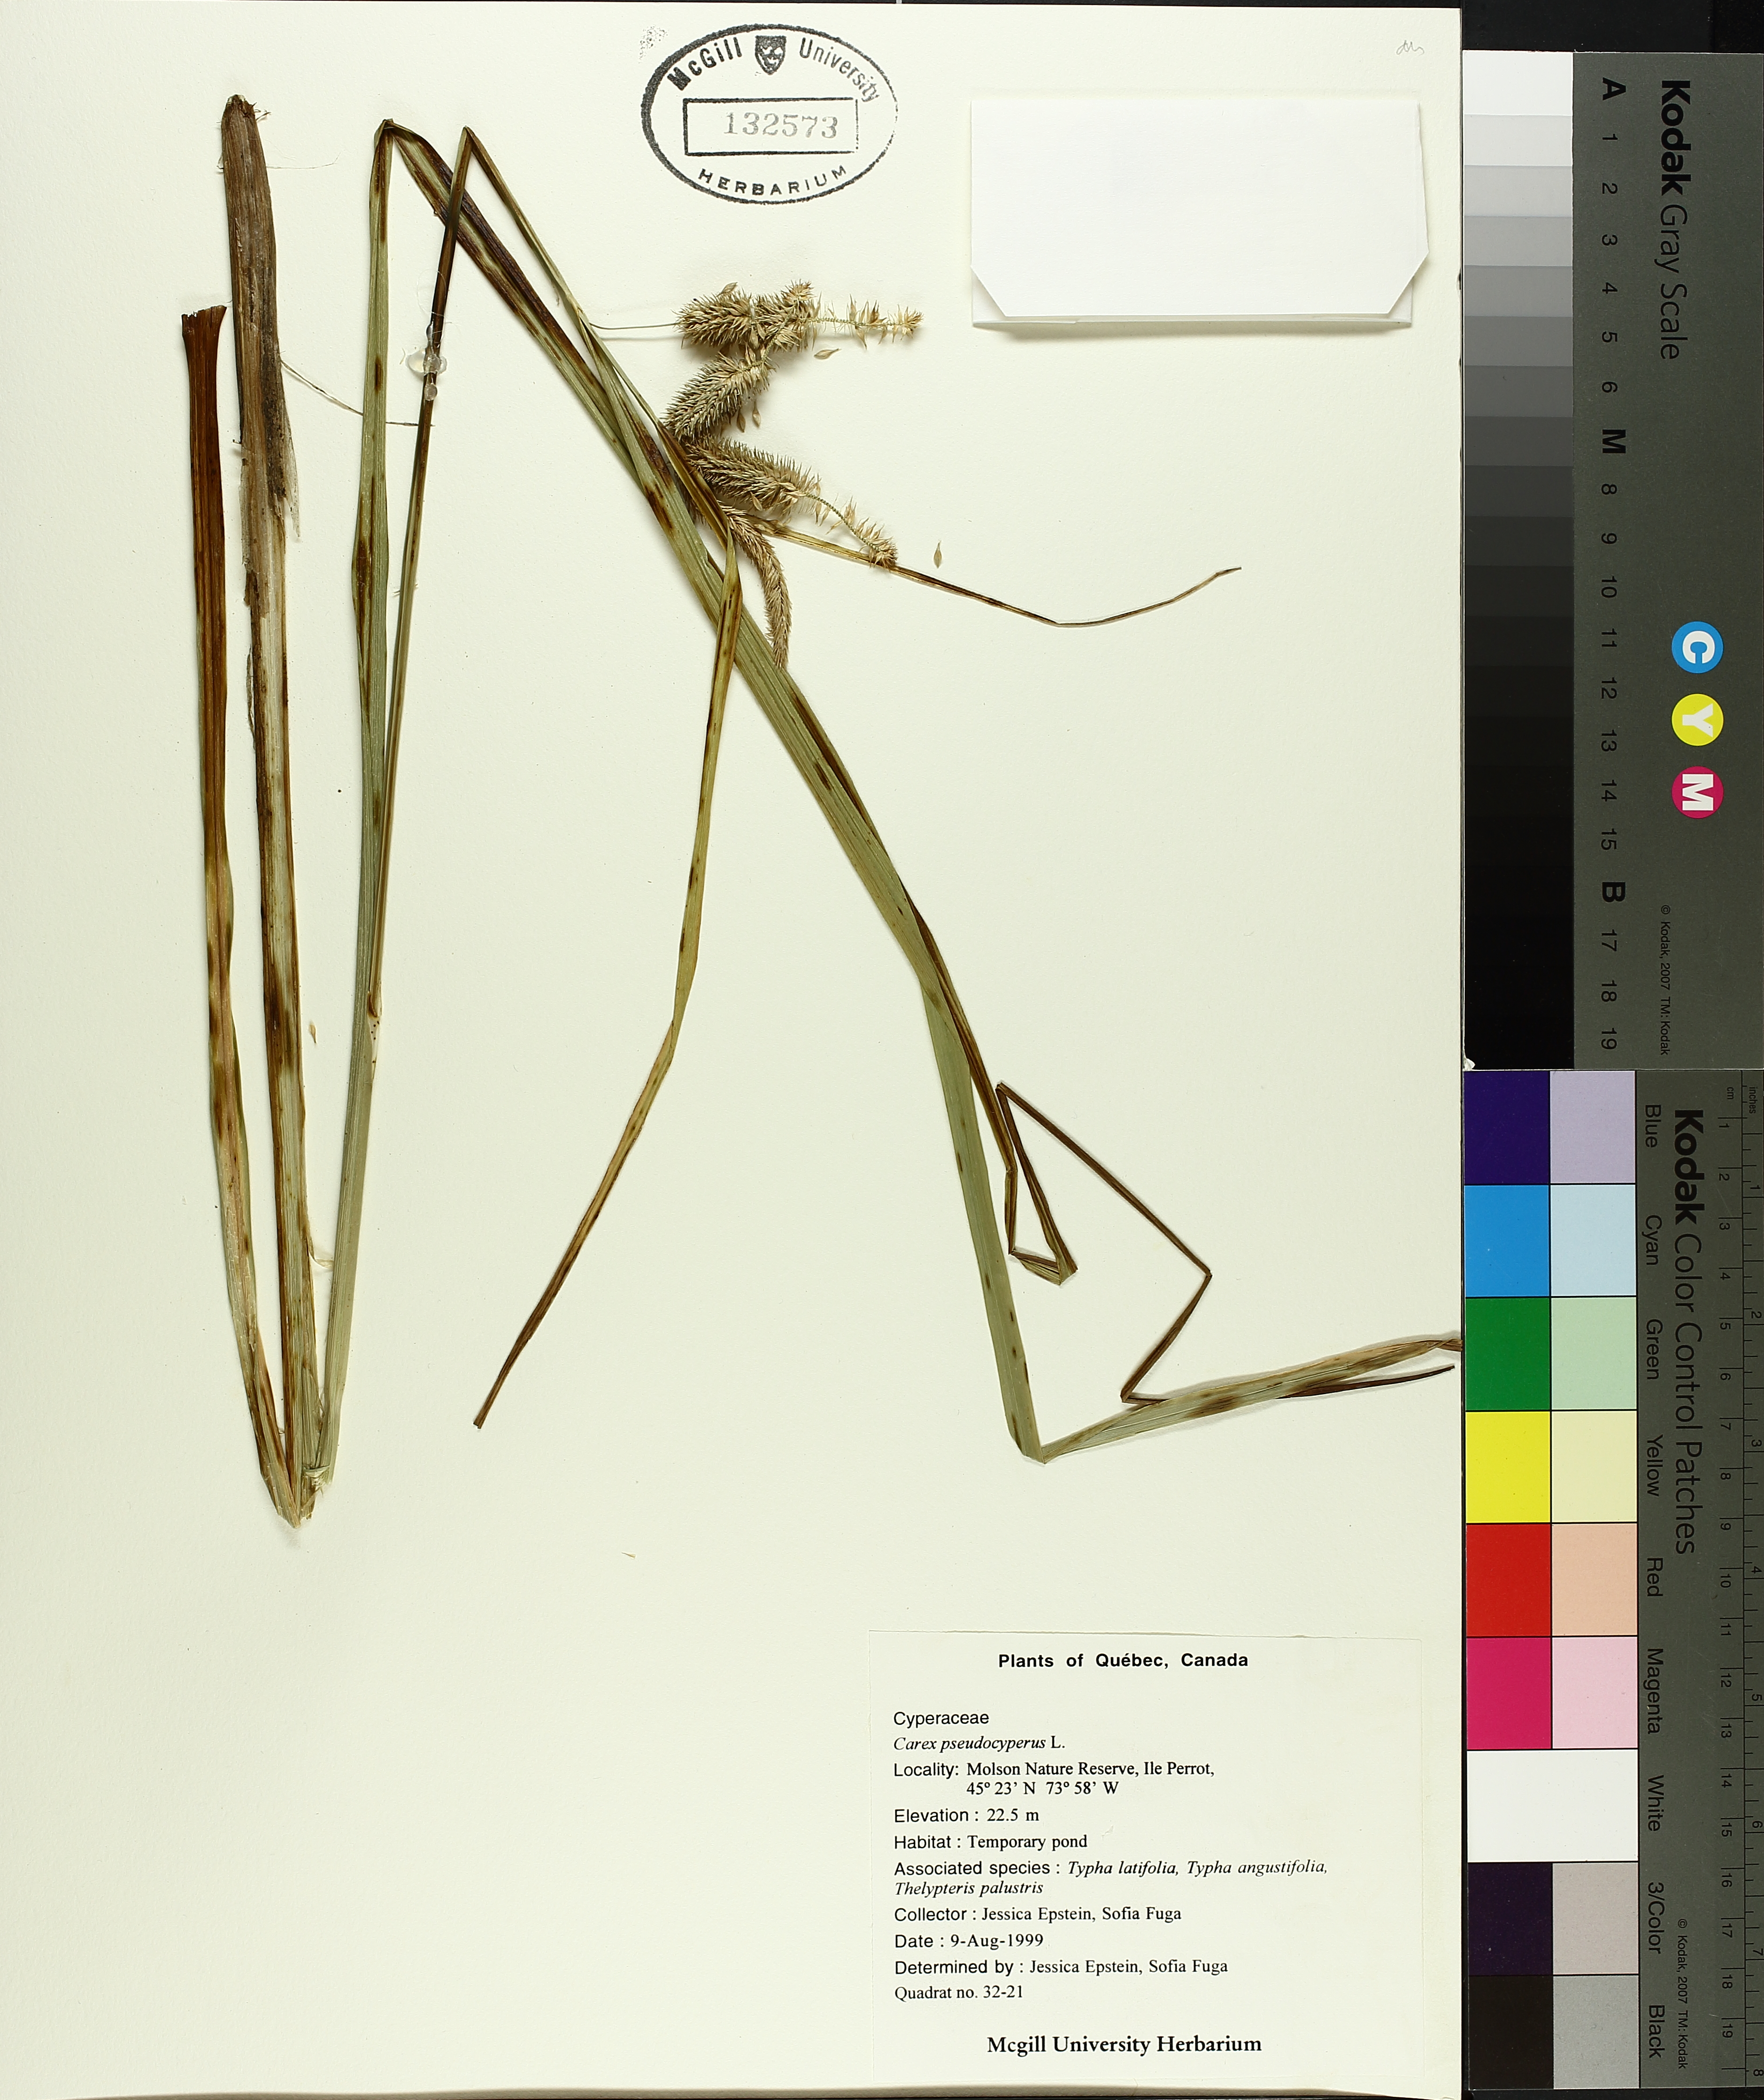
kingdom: Plantae
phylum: Tracheophyta
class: Liliopsida
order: Poales
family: Cyperaceae
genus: Carex
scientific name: Carex pseudocyperus
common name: Cyperus sedge
